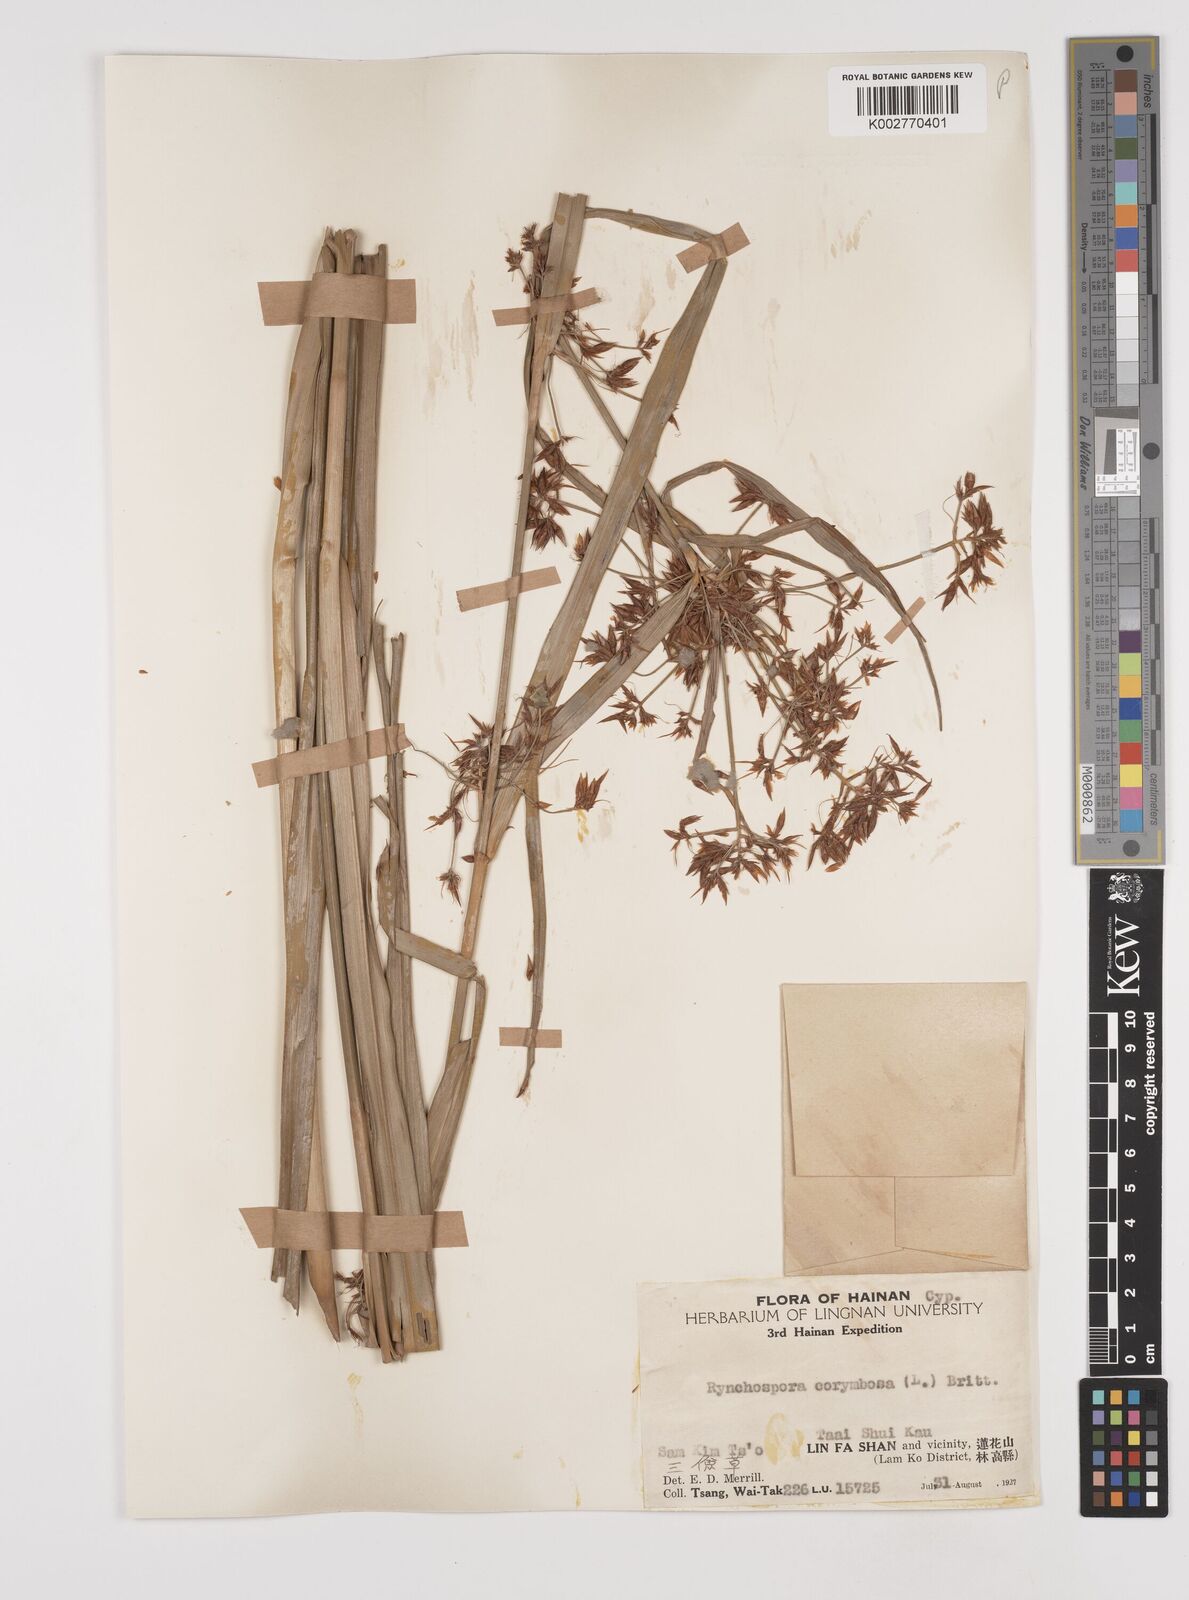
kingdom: Plantae
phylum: Tracheophyta
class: Liliopsida
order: Poales
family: Cyperaceae
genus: Rhynchospora
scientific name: Rhynchospora corymbosa
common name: Golden beak sedge
